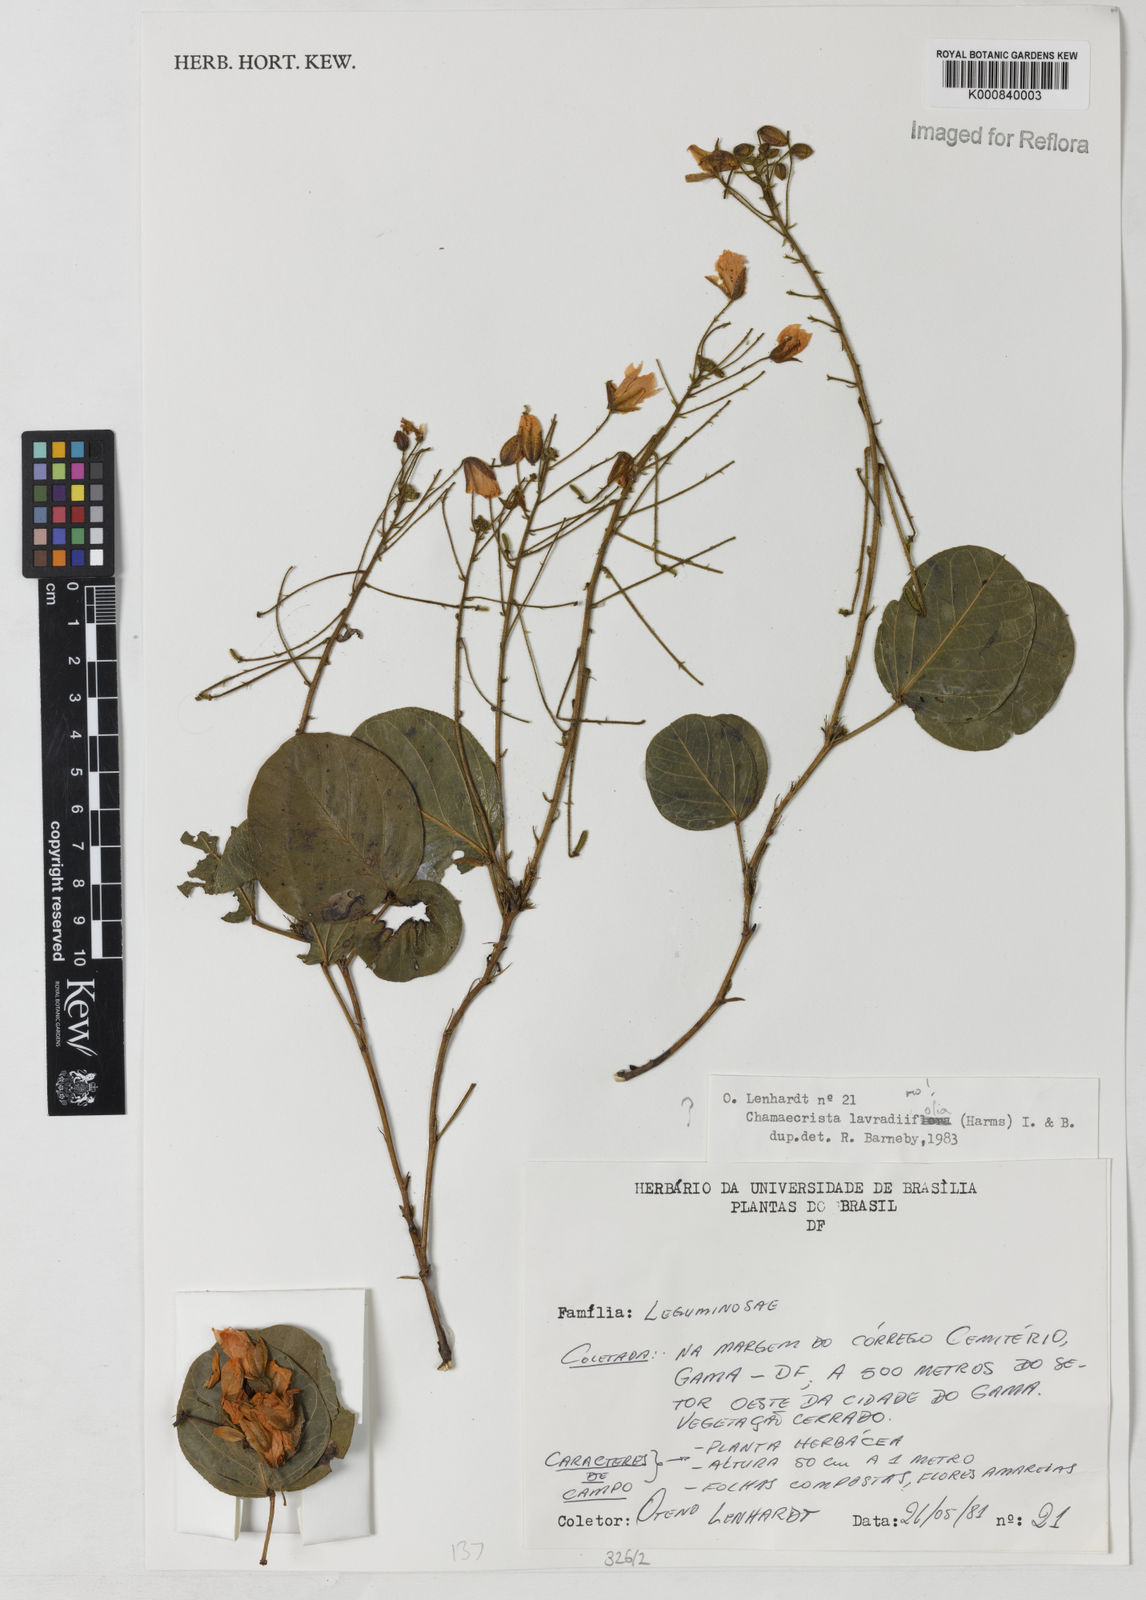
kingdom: Plantae
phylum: Tracheophyta
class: Magnoliopsida
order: Fabales
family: Fabaceae
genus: Chamaecrista
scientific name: Chamaecrista lavradiiflora
